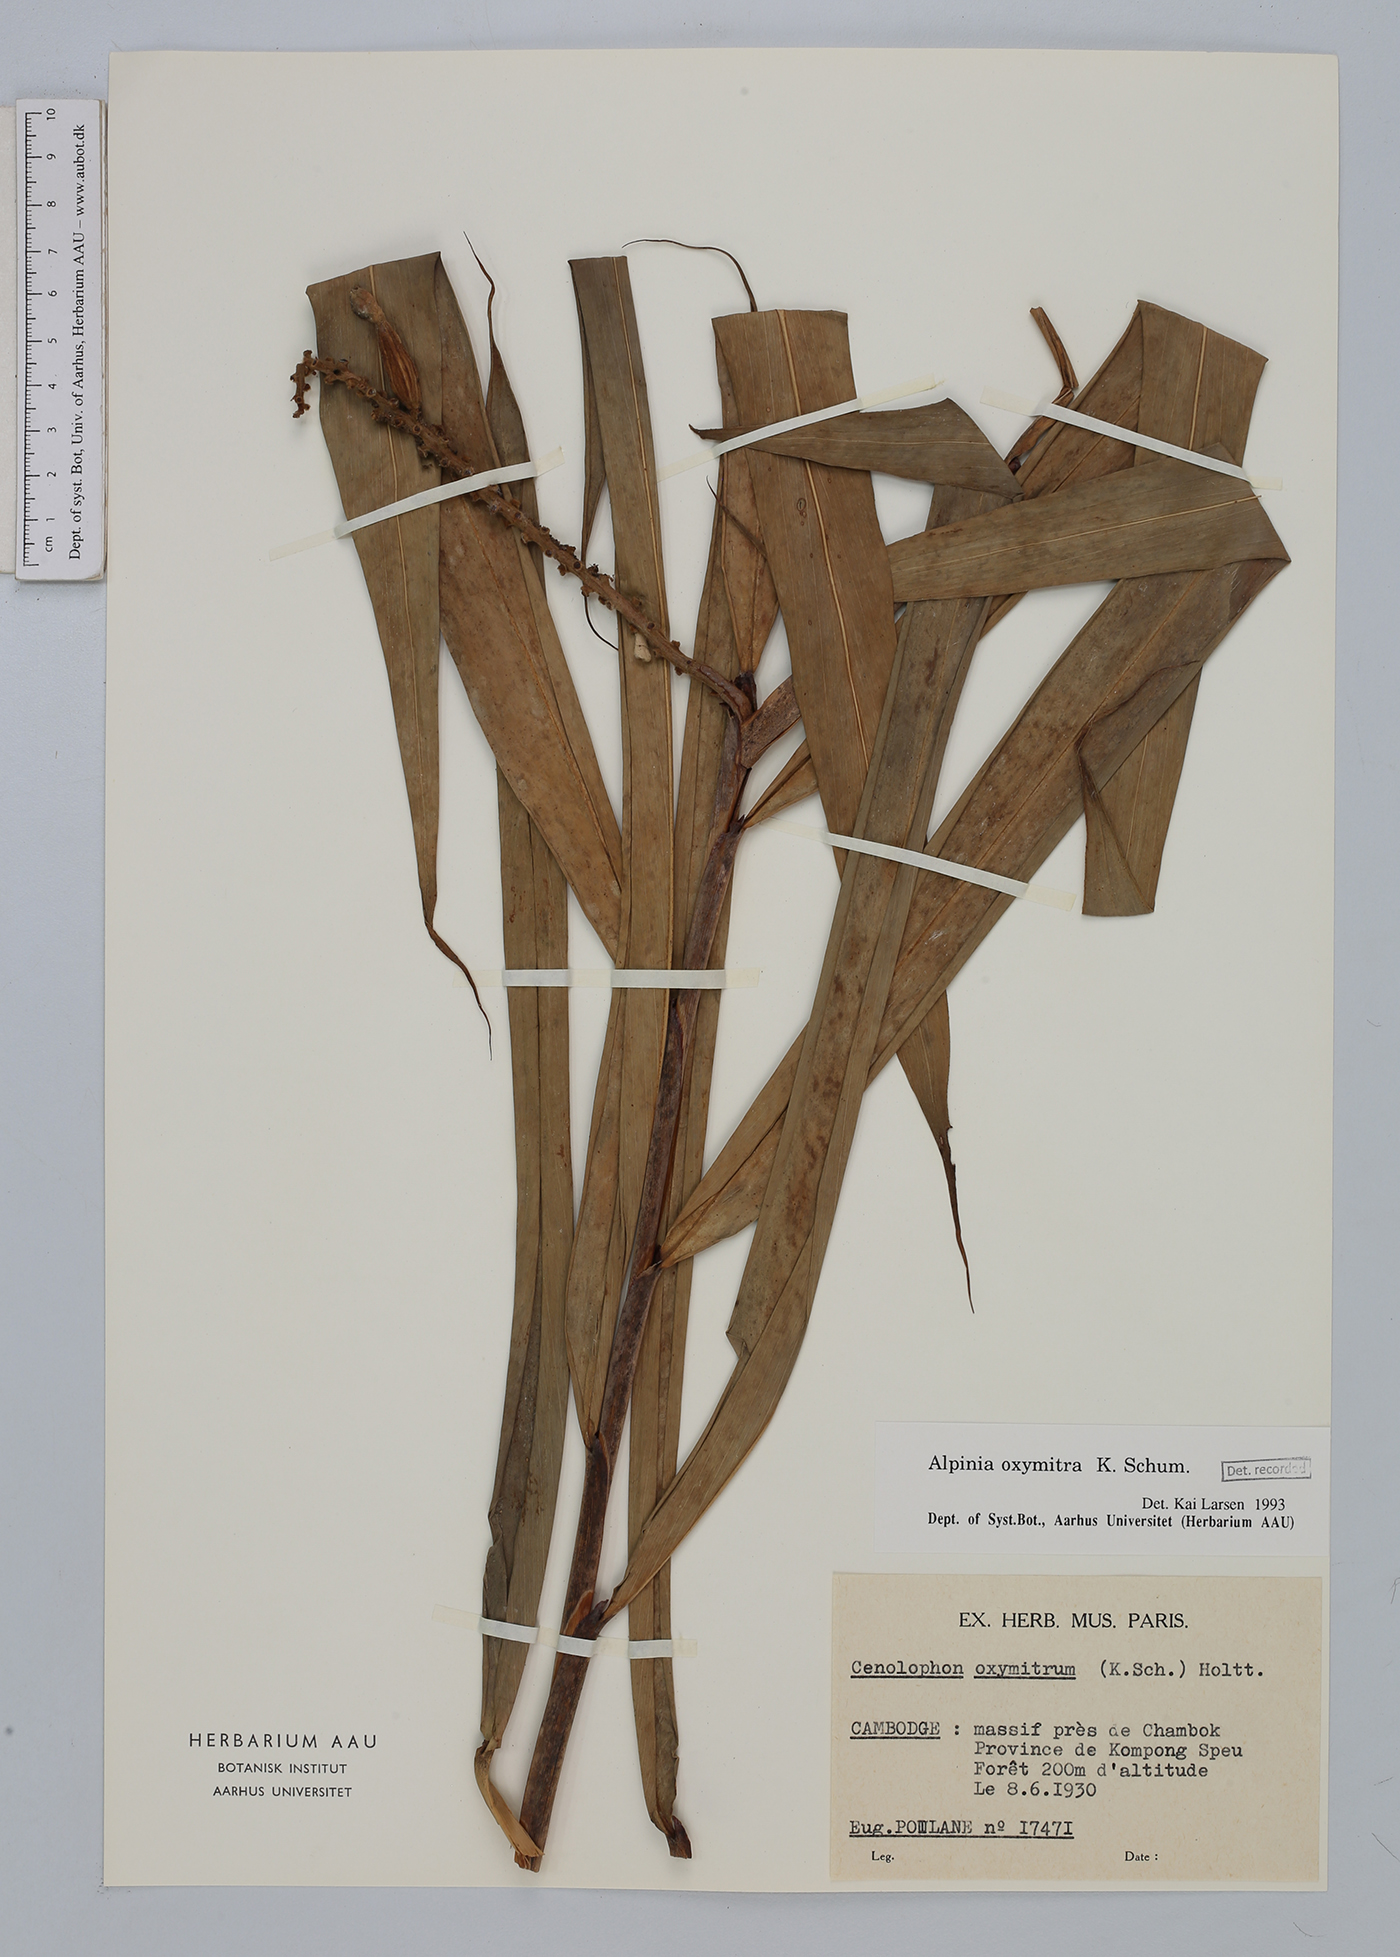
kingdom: Plantae
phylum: Tracheophyta
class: Liliopsida
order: Zingiberales
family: Zingiberaceae
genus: Alpinia
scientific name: Alpinia oxymitra
